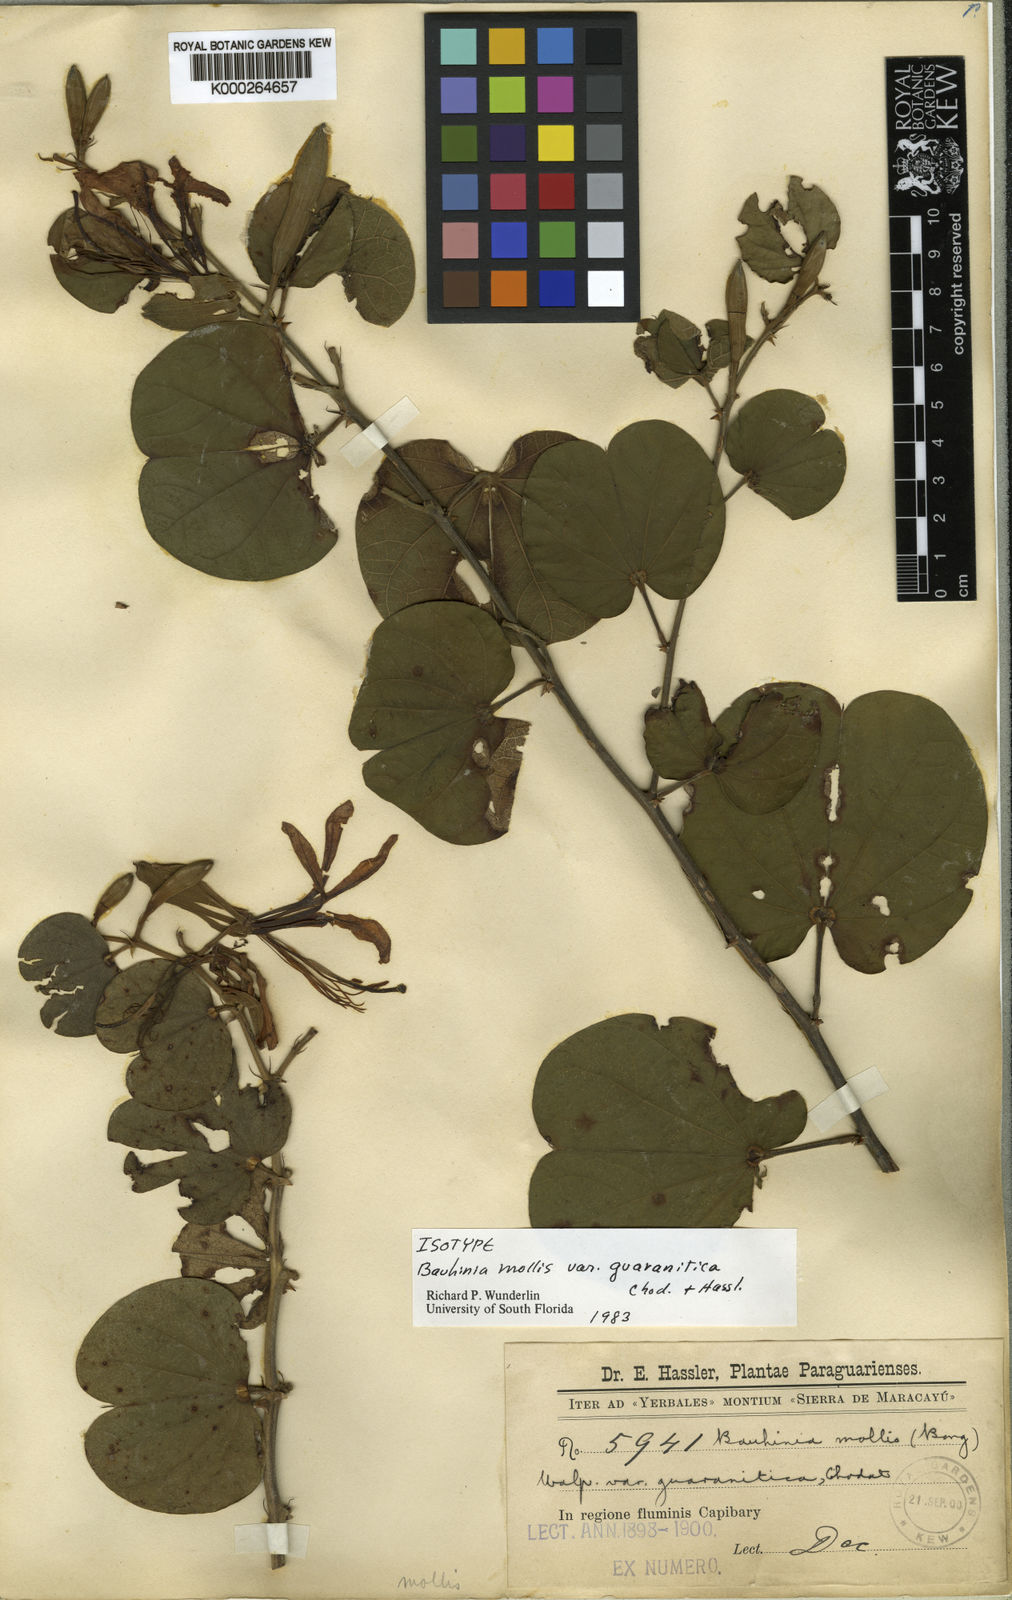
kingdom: Plantae
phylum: Tracheophyta
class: Magnoliopsida
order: Fabales
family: Fabaceae
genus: Bauhinia
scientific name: Bauhinia mollis
